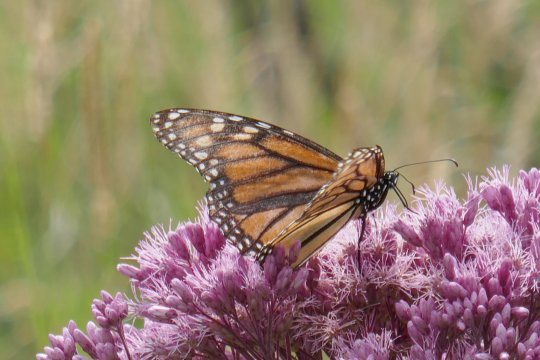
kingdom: Animalia
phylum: Arthropoda
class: Insecta
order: Lepidoptera
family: Nymphalidae
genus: Danaus
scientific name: Danaus plexippus
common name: Monarch
